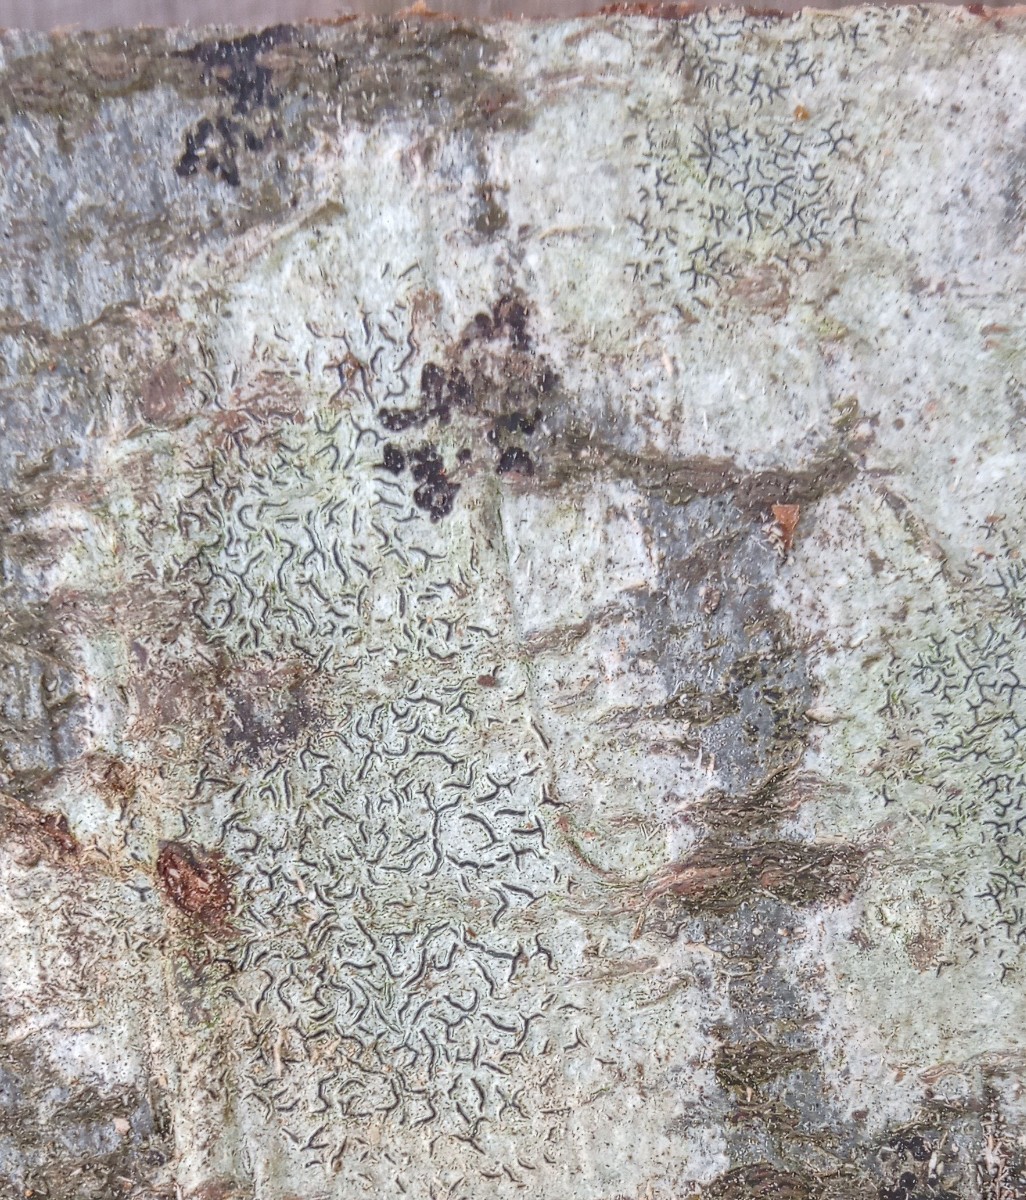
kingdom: Fungi
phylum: Ascomycota
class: Lecanoromycetes
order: Ostropales
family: Graphidaceae
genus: Graphis
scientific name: Graphis scripta
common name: almindelig skriftlav
